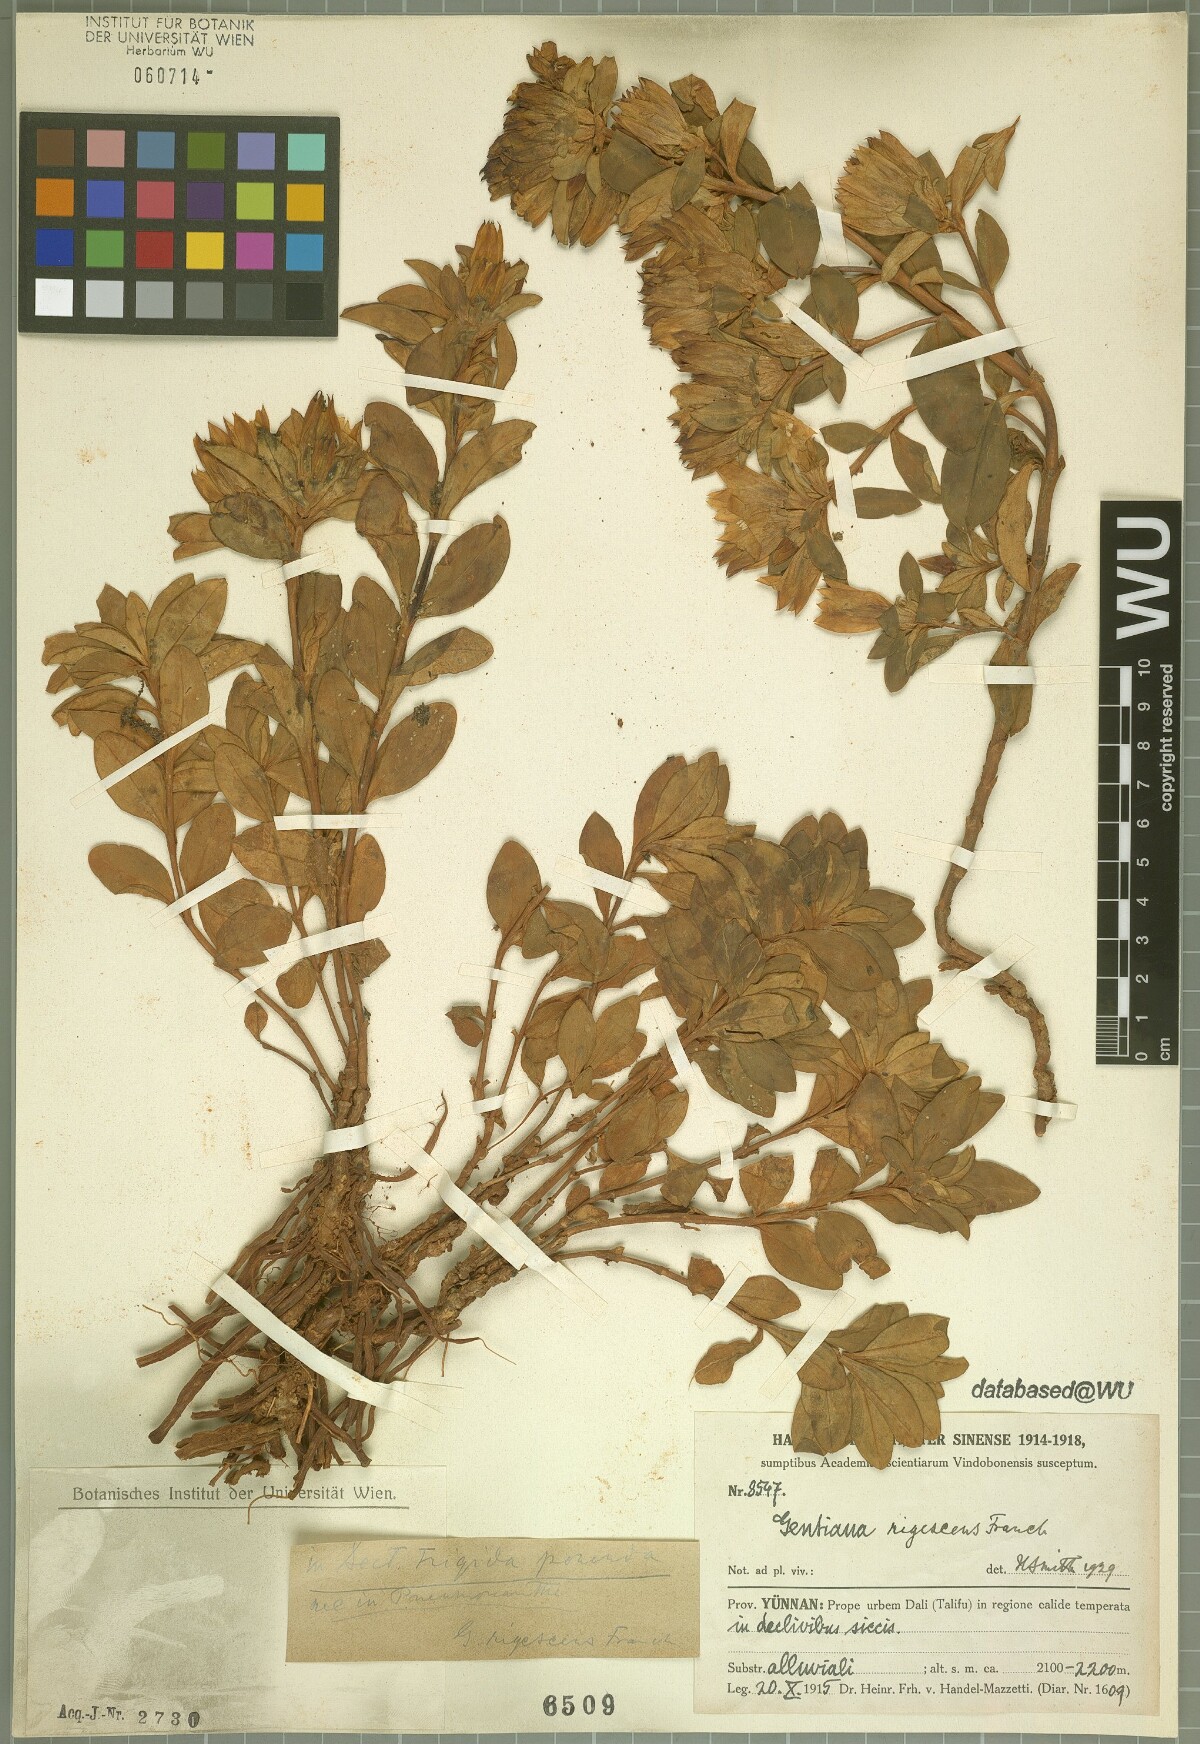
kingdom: Plantae
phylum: Tracheophyta
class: Magnoliopsida
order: Gentianales
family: Gentianaceae
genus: Gentiana
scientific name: Gentiana crassa
